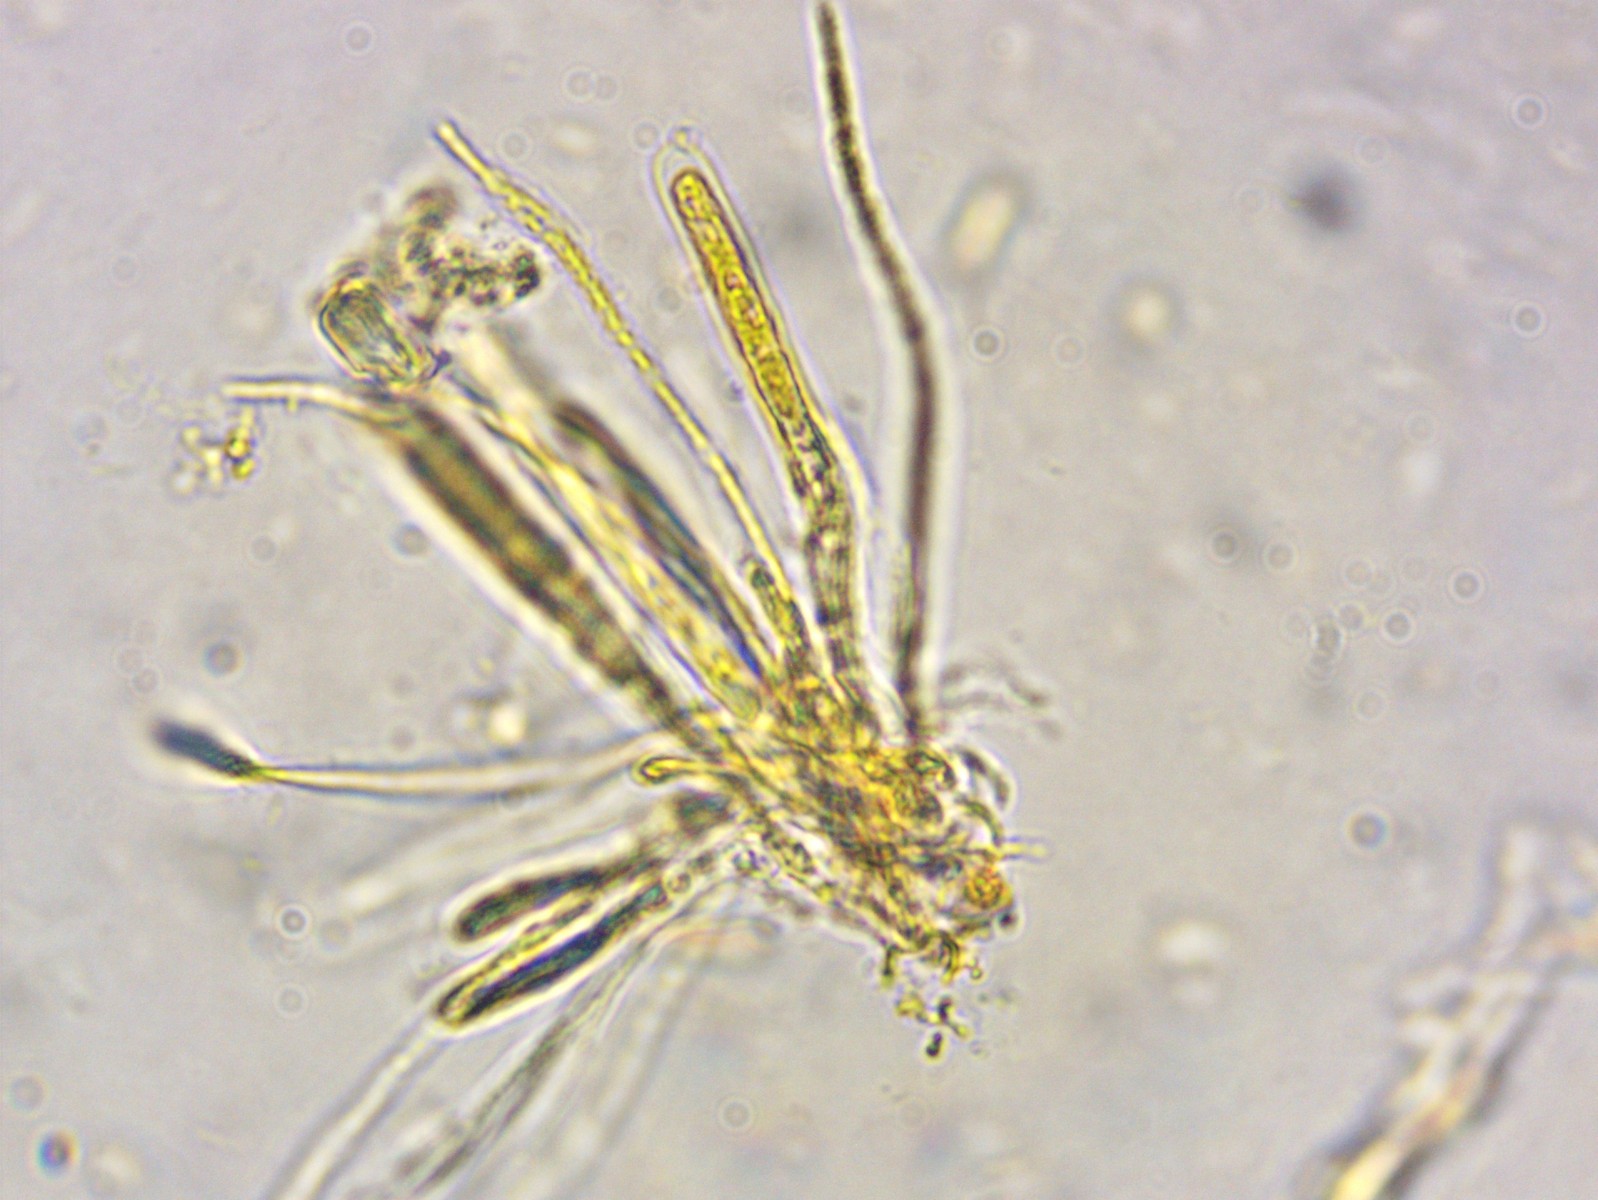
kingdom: Fungi
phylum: Ascomycota
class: Leotiomycetes
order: Helotiales
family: Cordieritidaceae
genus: Unguiculariopsis
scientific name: Unguiculariopsis hamatopilosa
